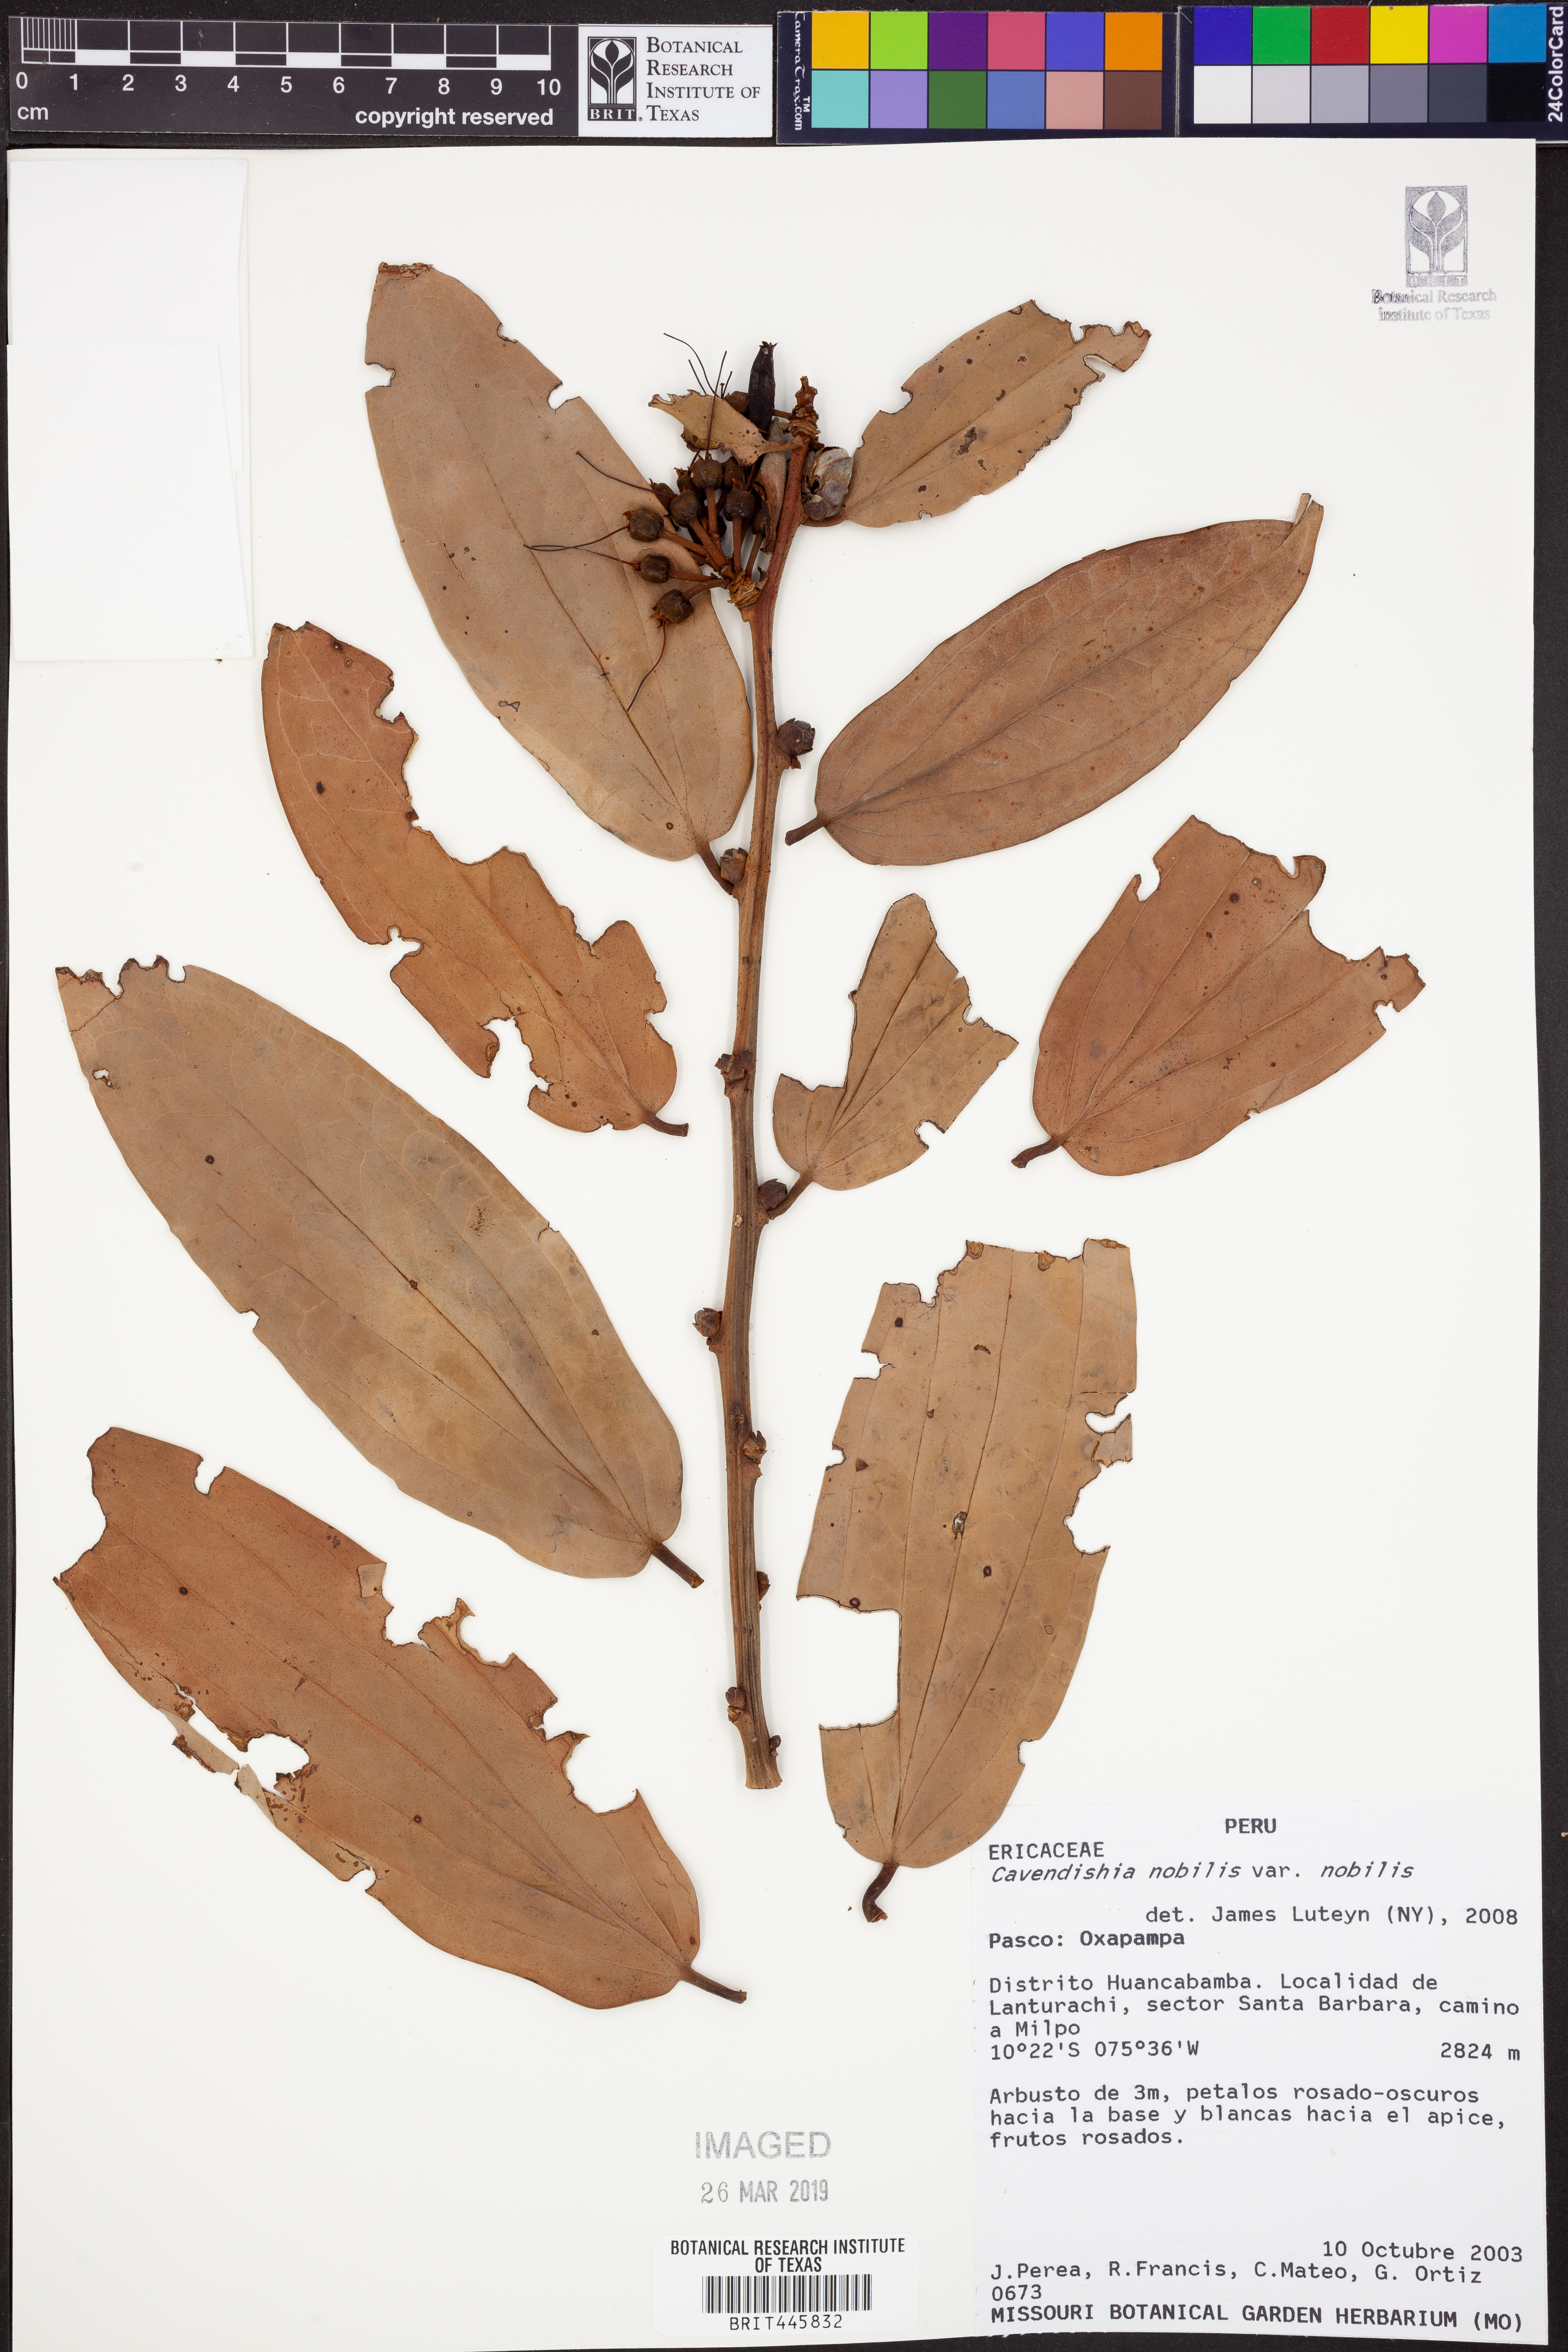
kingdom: Plantae
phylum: Tracheophyta
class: Magnoliopsida
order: Ericales
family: Ericaceae
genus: Cavendishia
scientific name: Cavendishia nobilis
